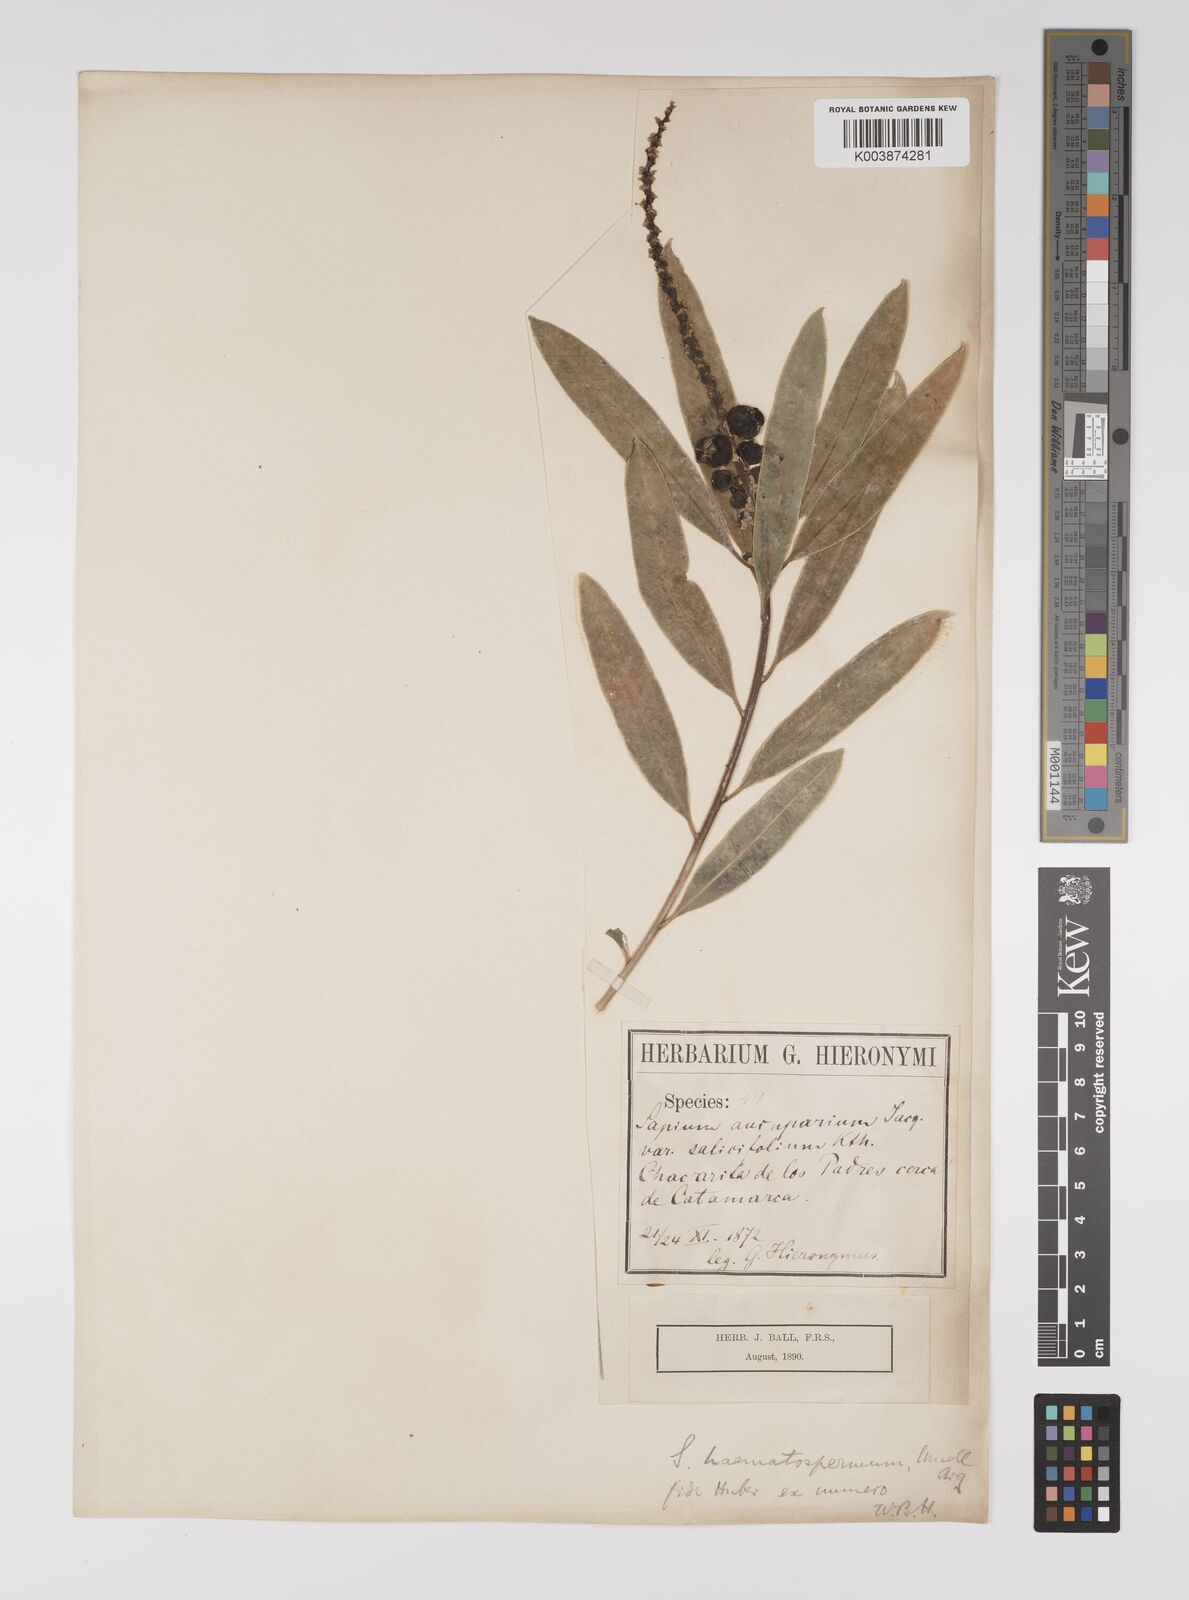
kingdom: Plantae
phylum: Tracheophyta
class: Magnoliopsida
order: Malpighiales
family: Euphorbiaceae
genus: Sapium
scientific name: Sapium haematospermum
